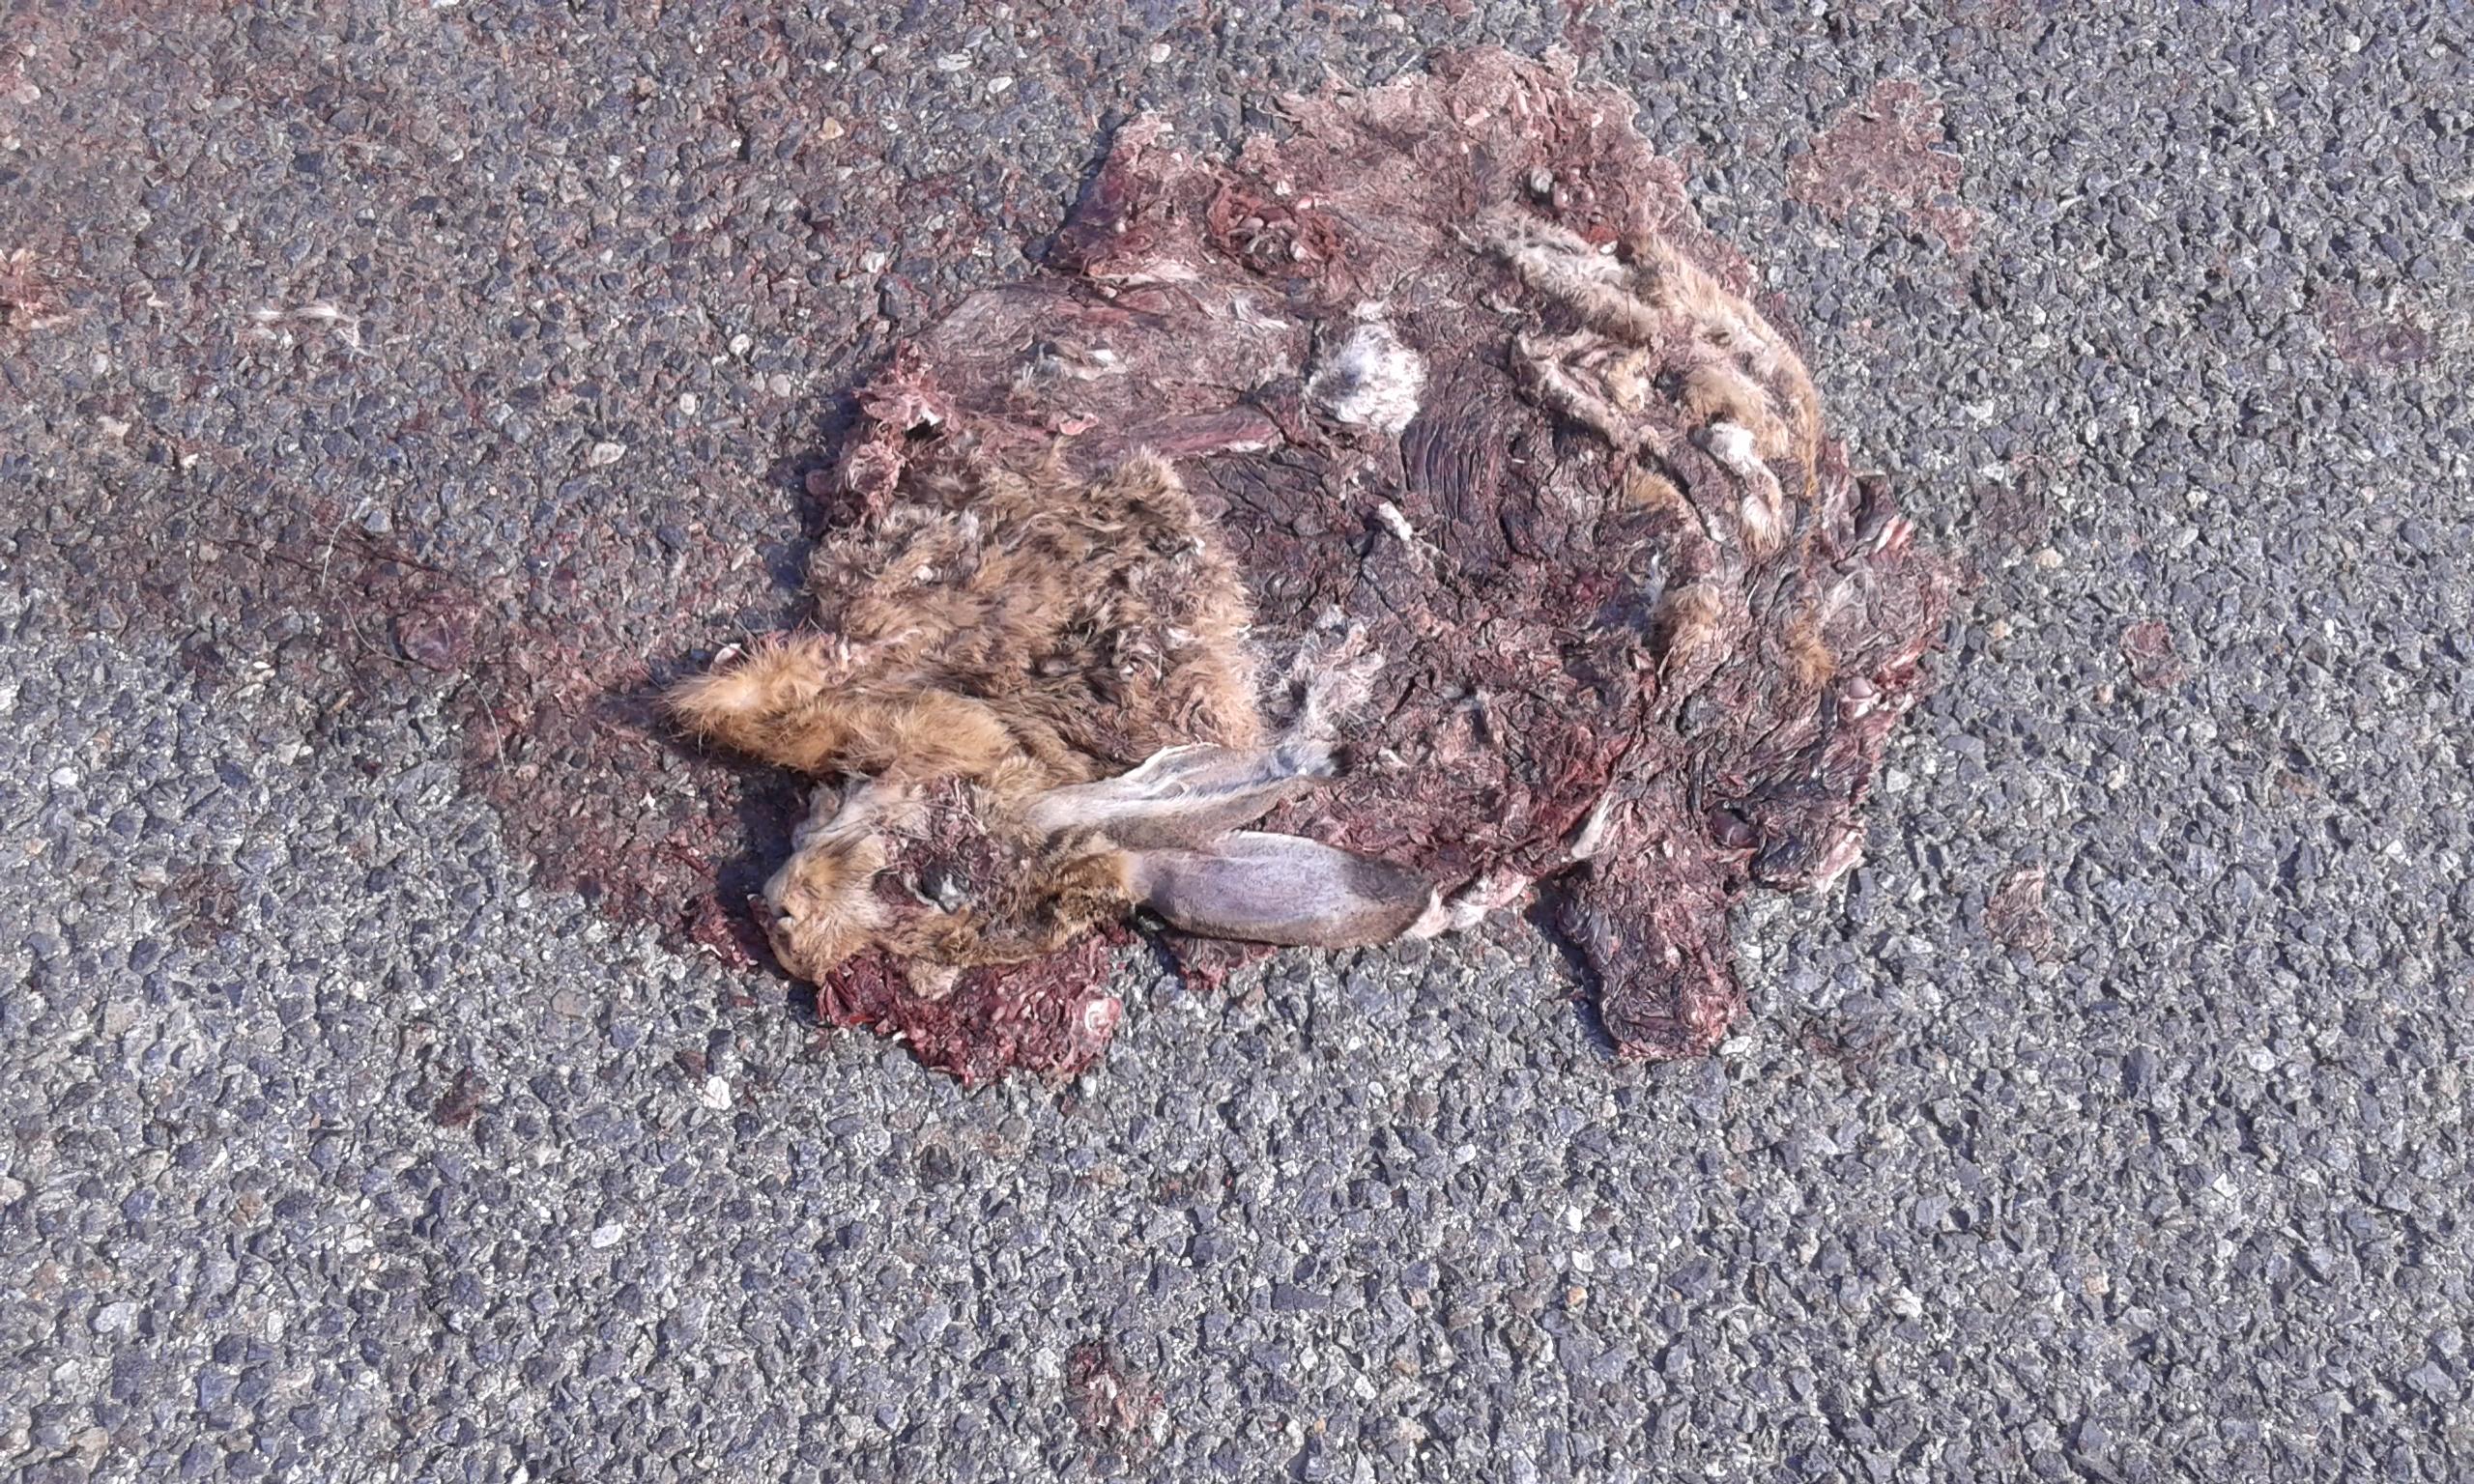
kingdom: Animalia
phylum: Chordata
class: Mammalia
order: Lagomorpha
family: Leporidae
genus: Lepus
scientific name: Lepus europaeus
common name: European hare
